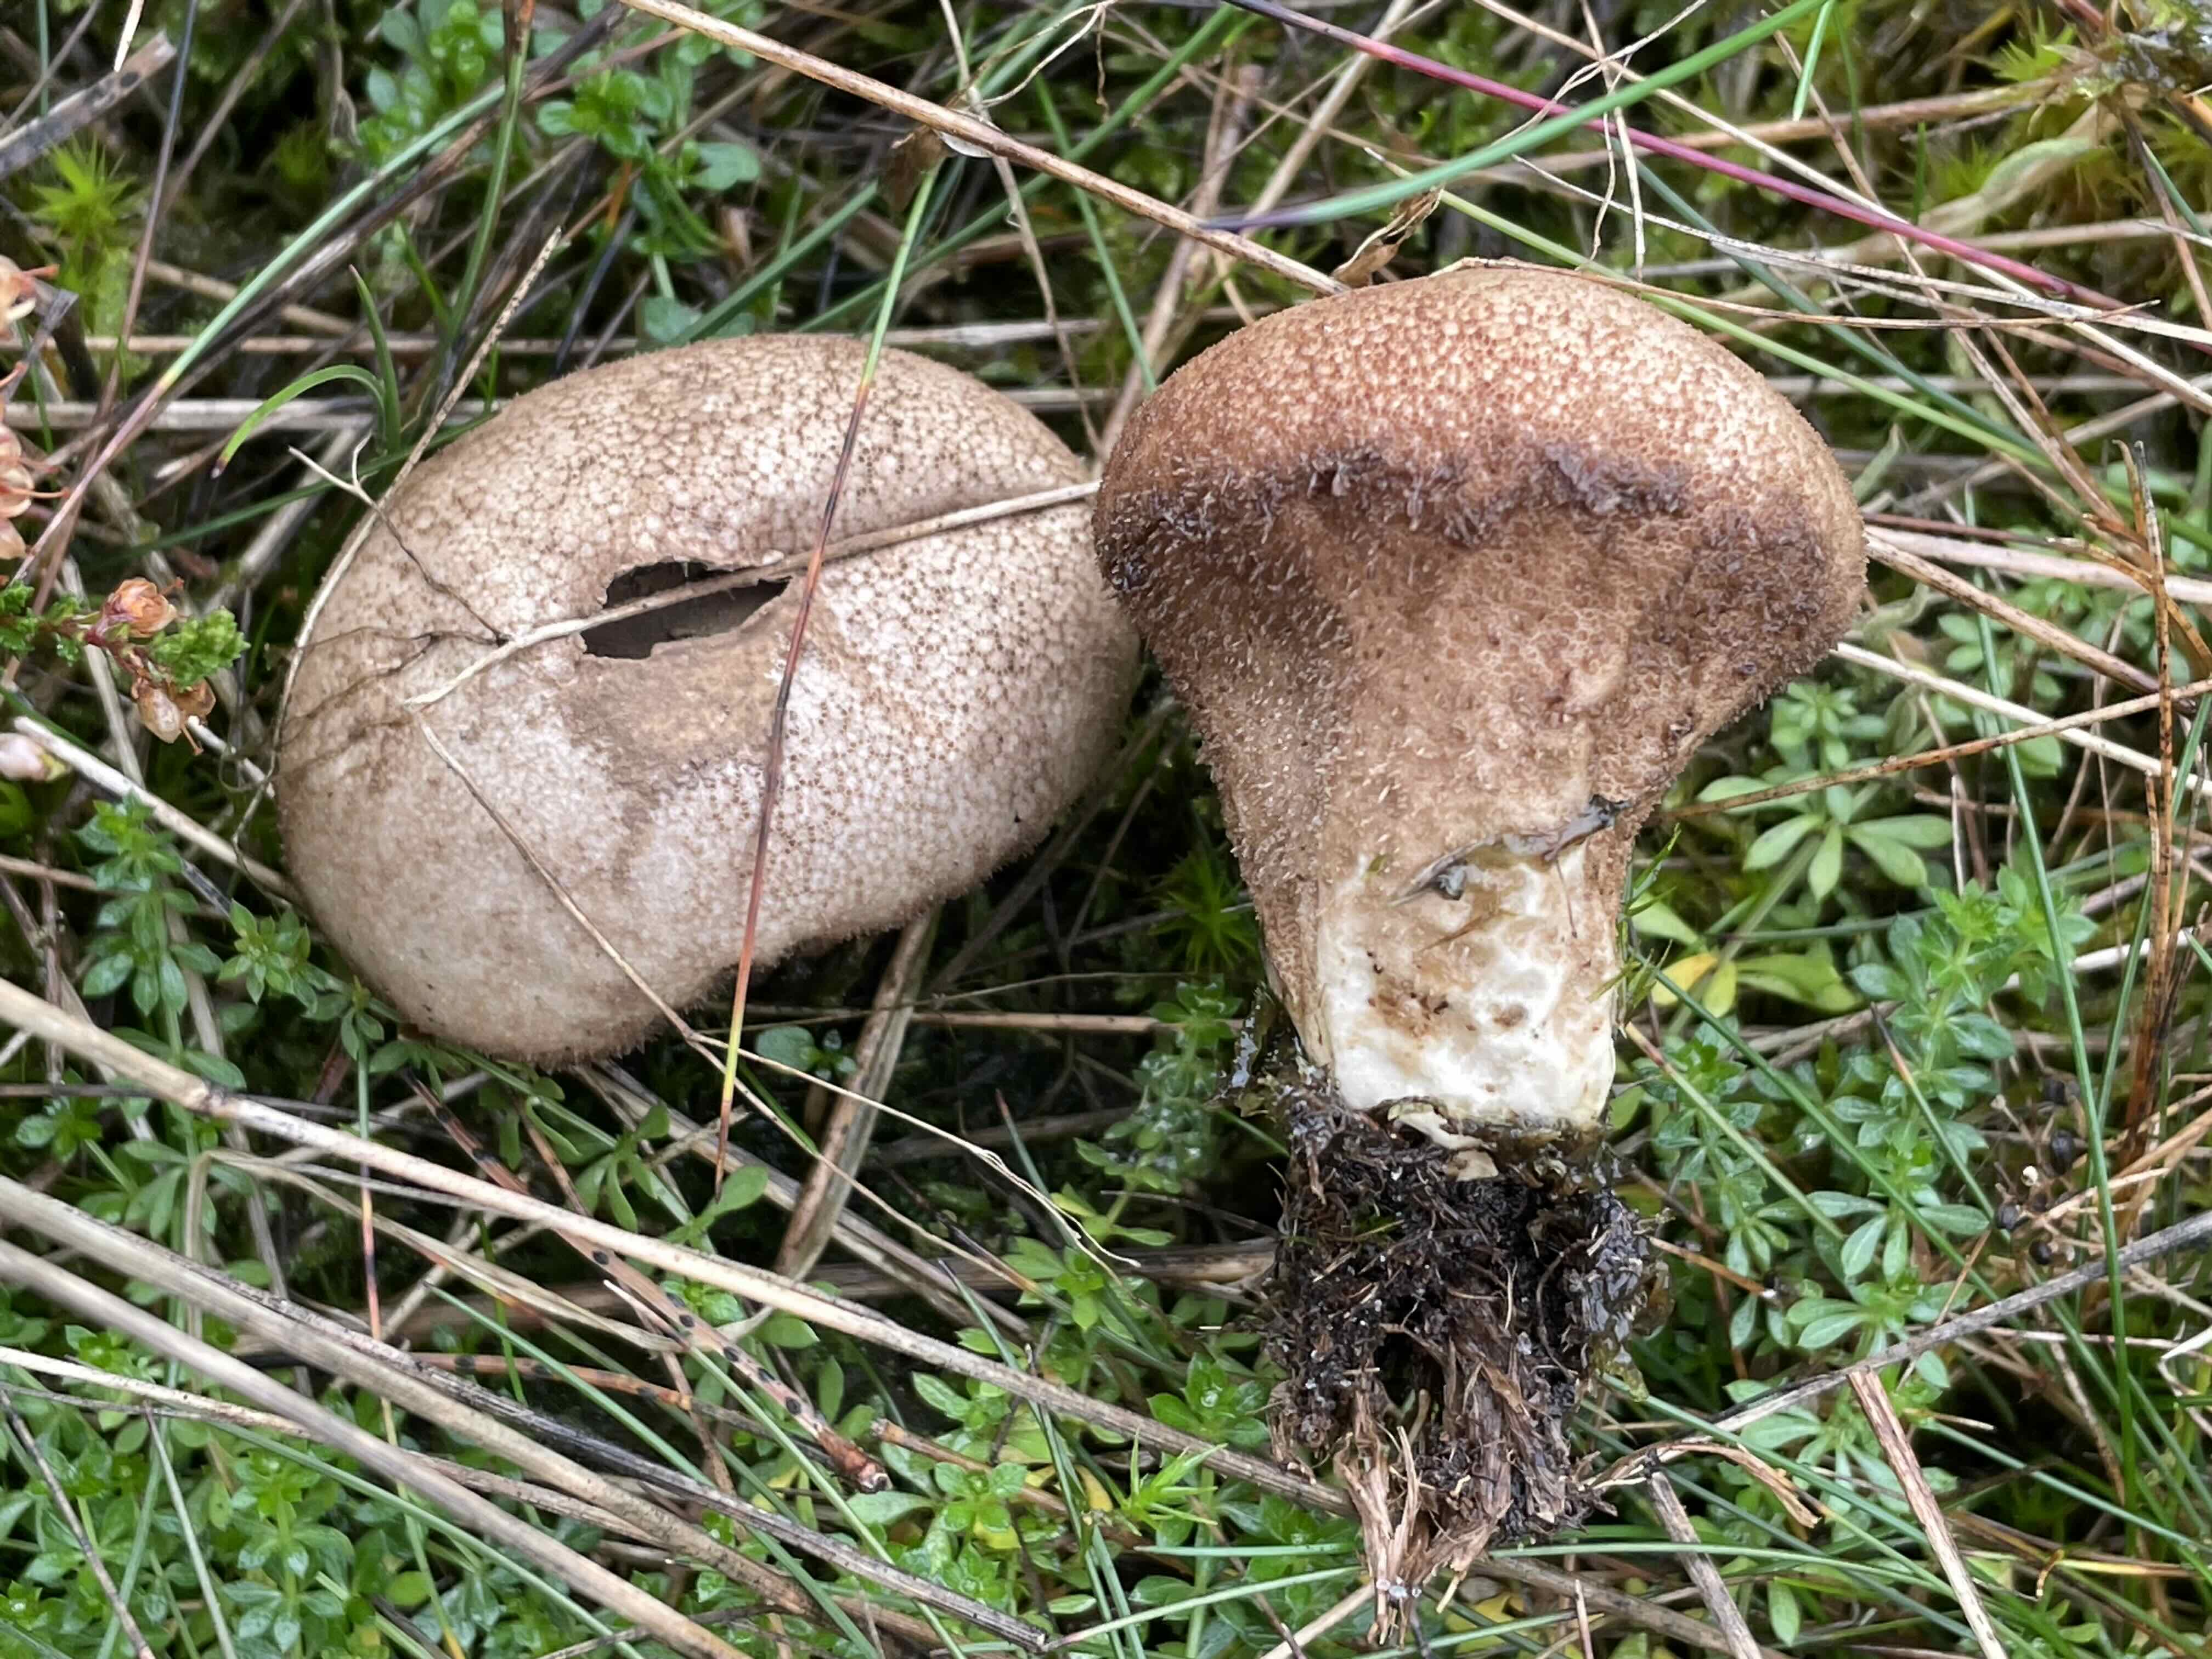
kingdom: Fungi
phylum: Basidiomycota
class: Agaricomycetes
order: Agaricales
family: Lycoperdaceae
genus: Lycoperdon
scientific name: Lycoperdon nigrescens
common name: sortagtig støvbold
